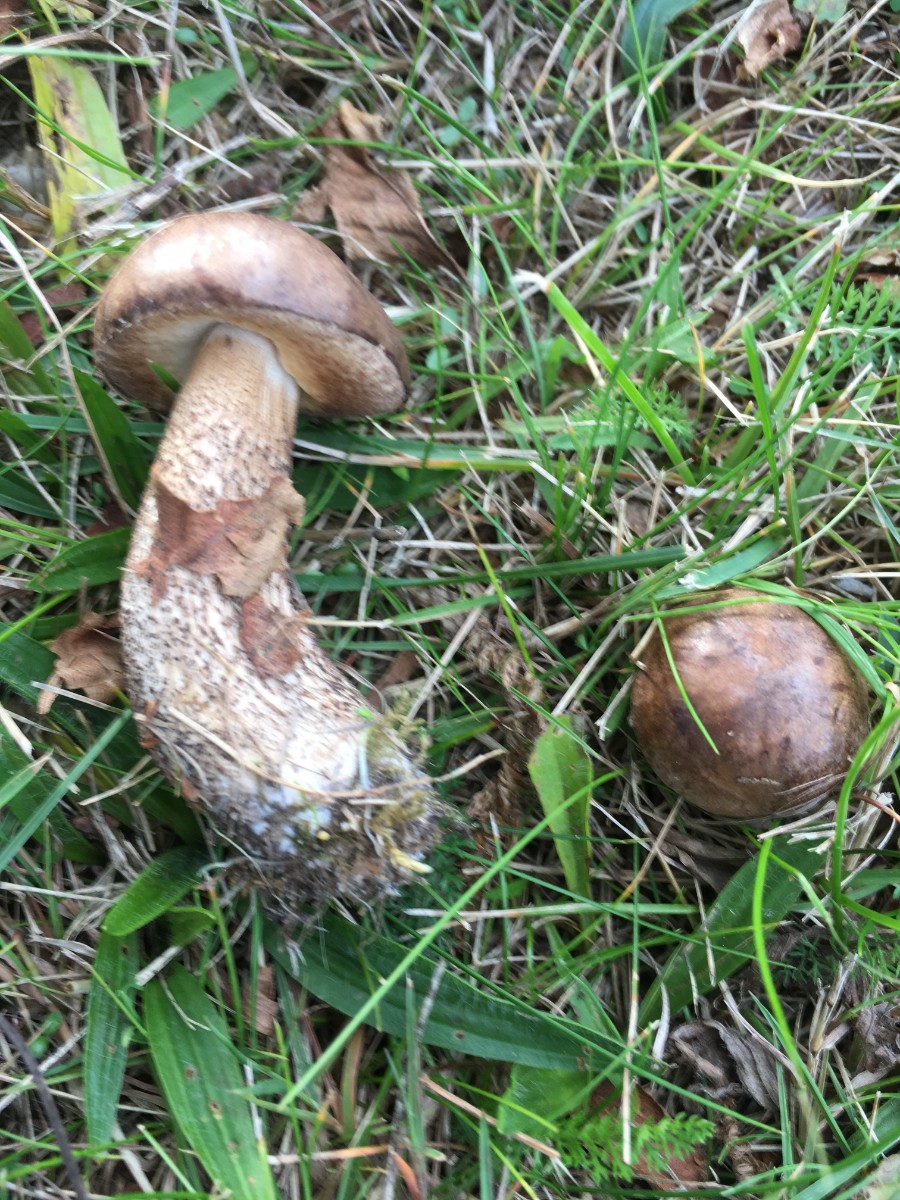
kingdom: Fungi
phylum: Basidiomycota
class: Agaricomycetes
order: Boletales
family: Boletaceae
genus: Leccinum
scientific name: Leccinum scabrum
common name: brun skælrørhat
